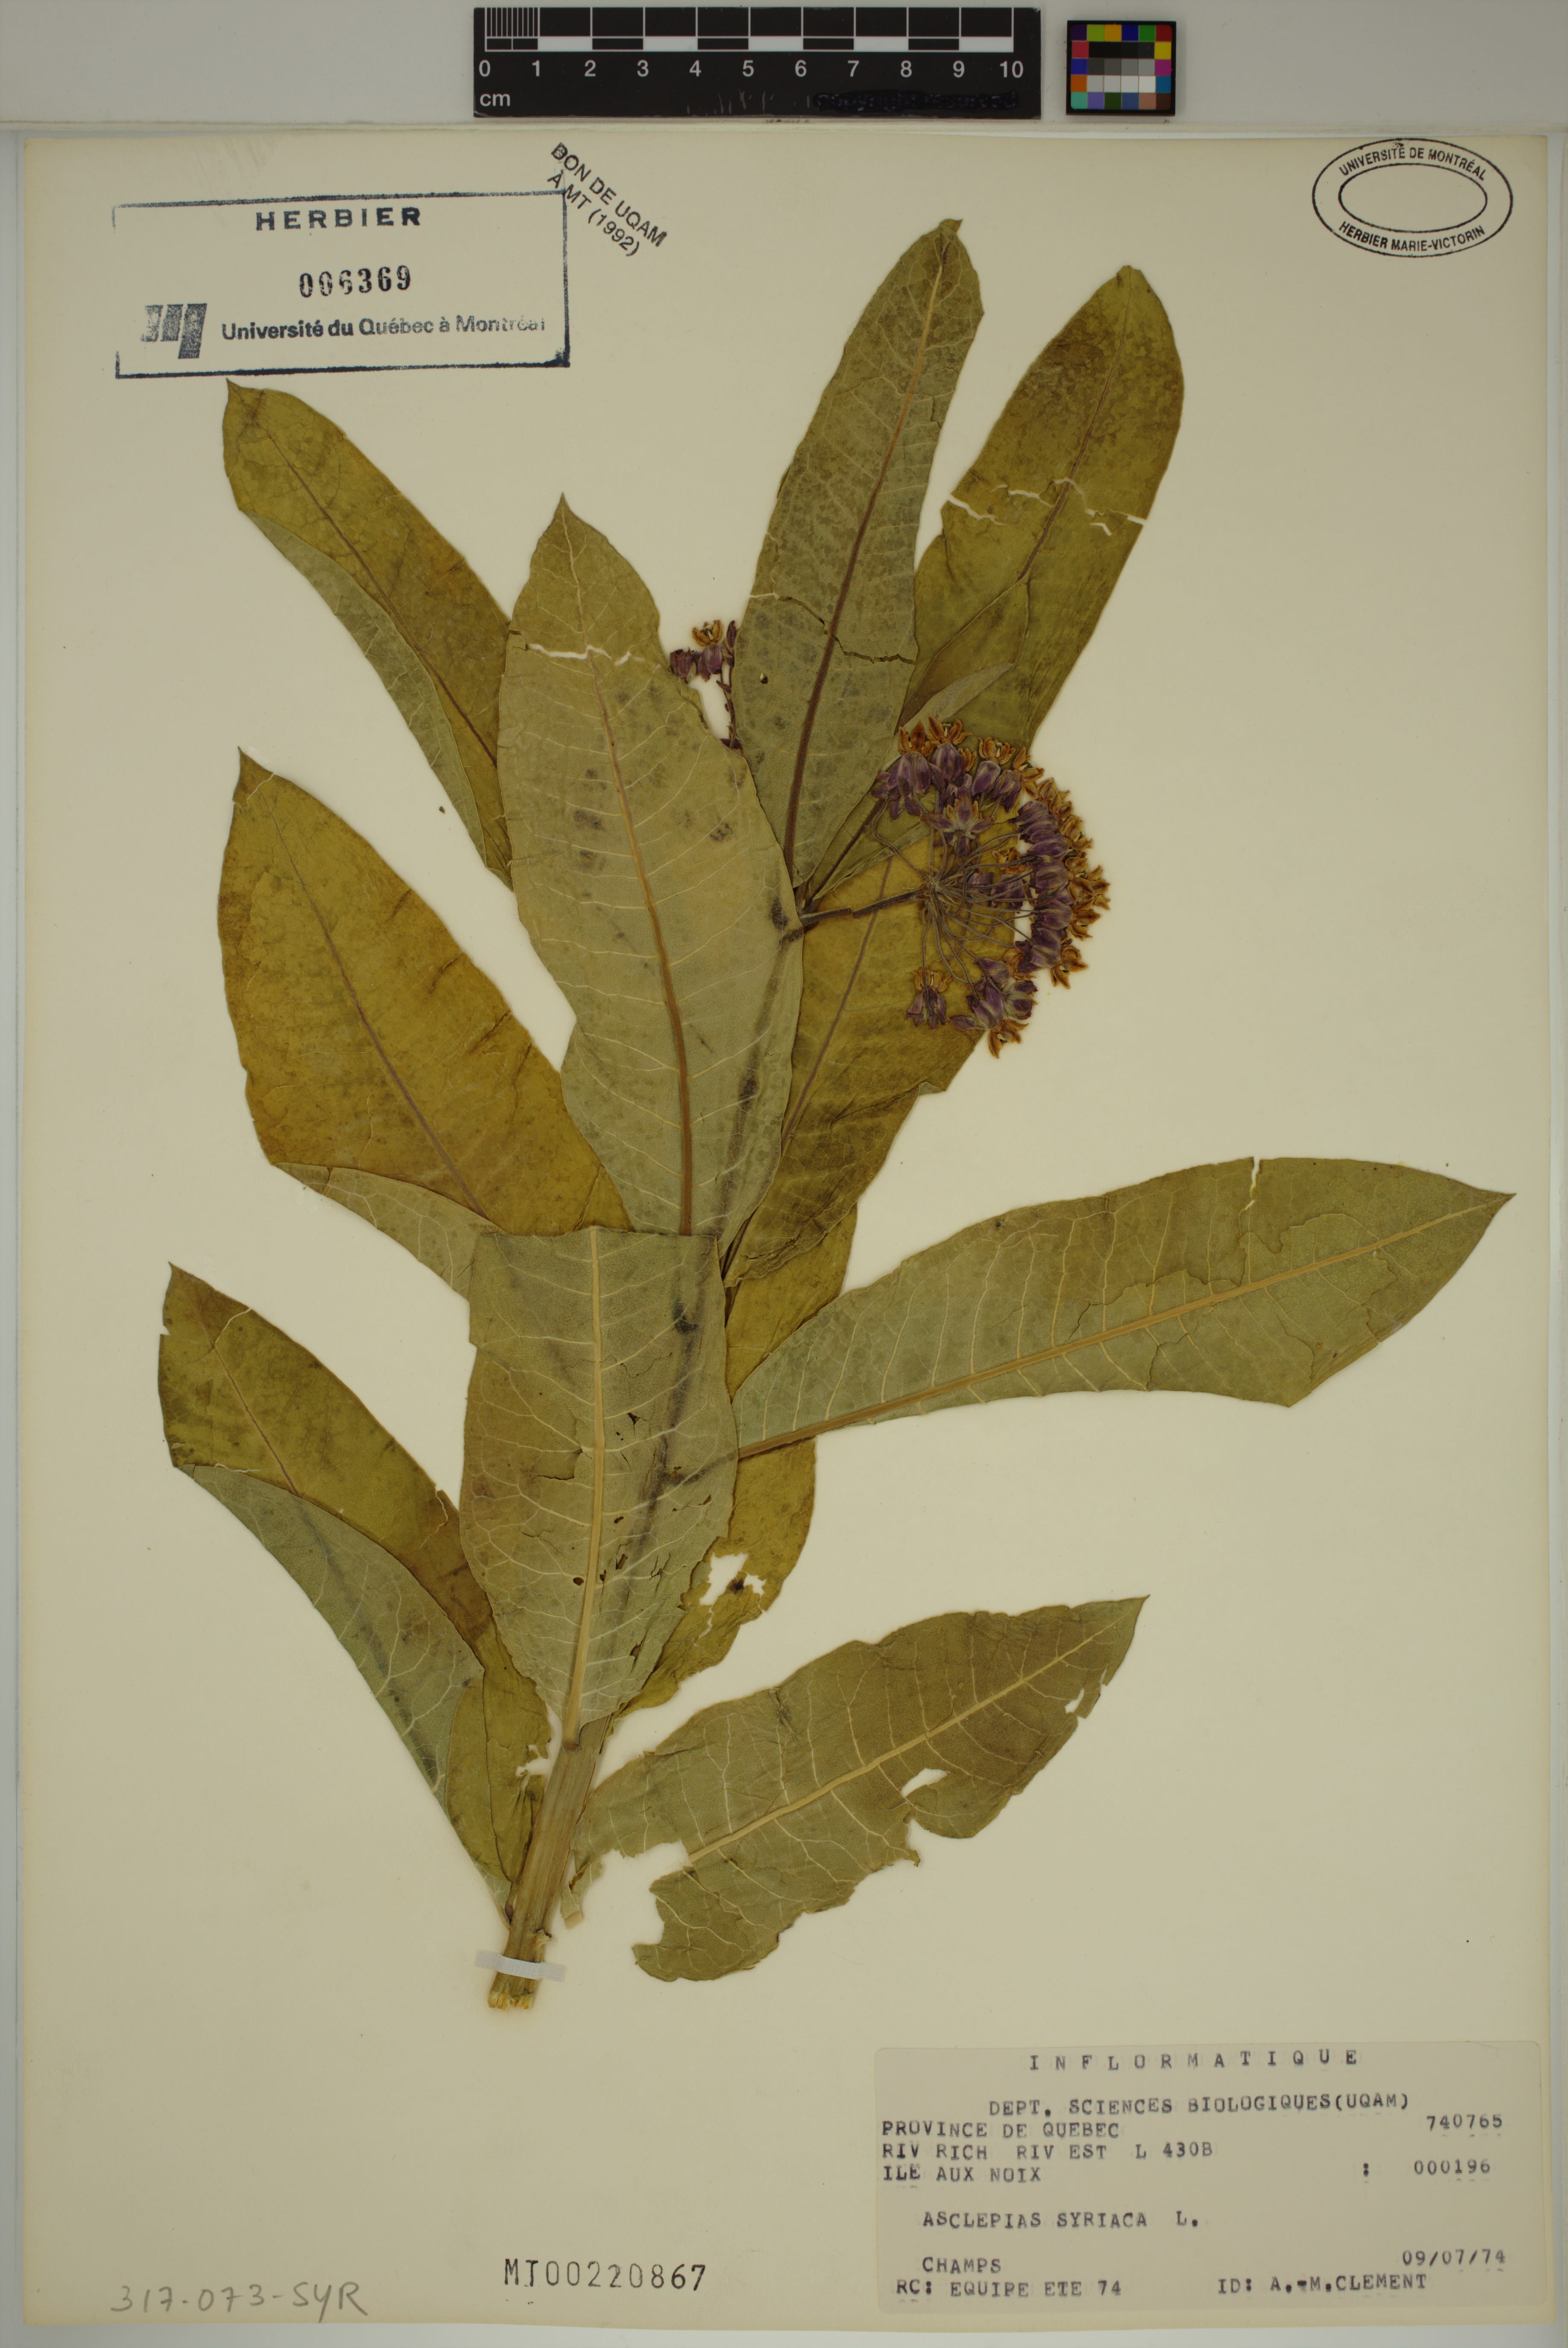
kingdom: Plantae
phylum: Tracheophyta
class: Magnoliopsida
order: Gentianales
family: Apocynaceae
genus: Asclepias
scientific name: Asclepias syriaca
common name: Common milkweed
